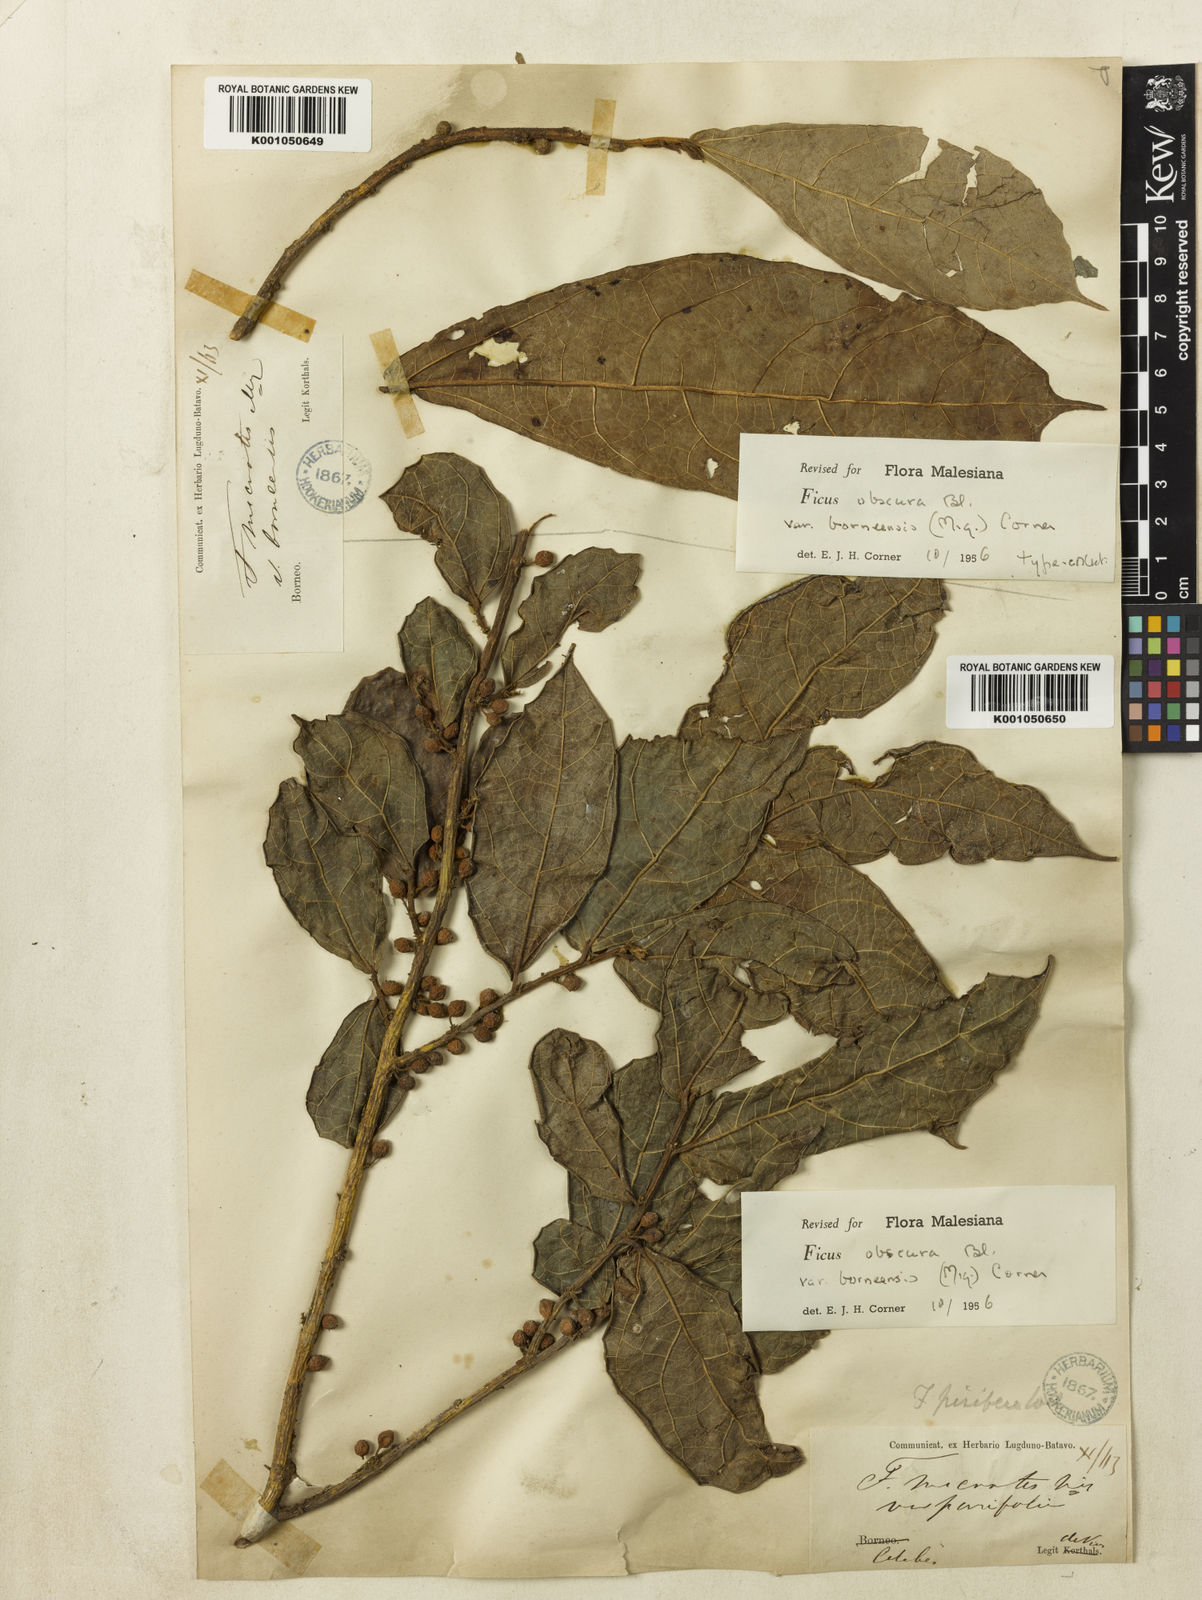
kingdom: Plantae
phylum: Tracheophyta
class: Magnoliopsida
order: Rosales
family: Moraceae
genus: Ficus
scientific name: Ficus scaberrima
